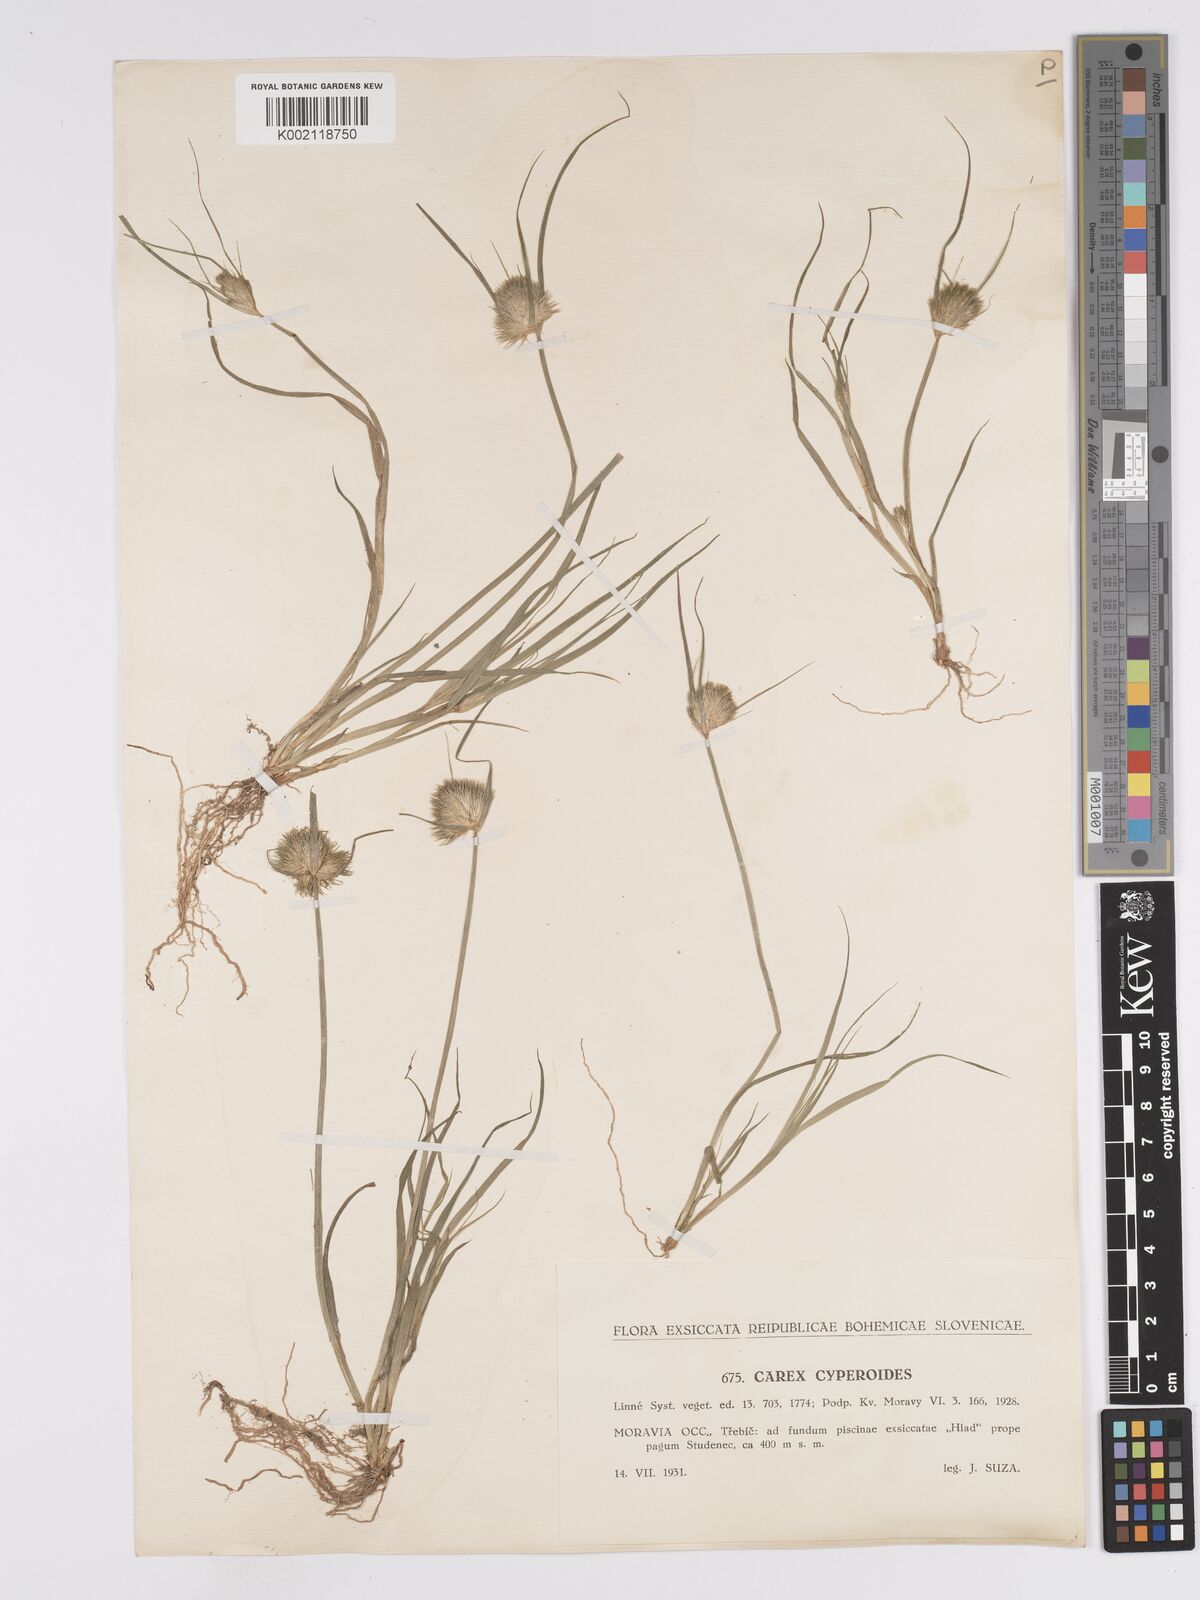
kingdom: Plantae
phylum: Tracheophyta
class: Liliopsida
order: Poales
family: Cyperaceae
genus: Carex
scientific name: Carex bohemica
